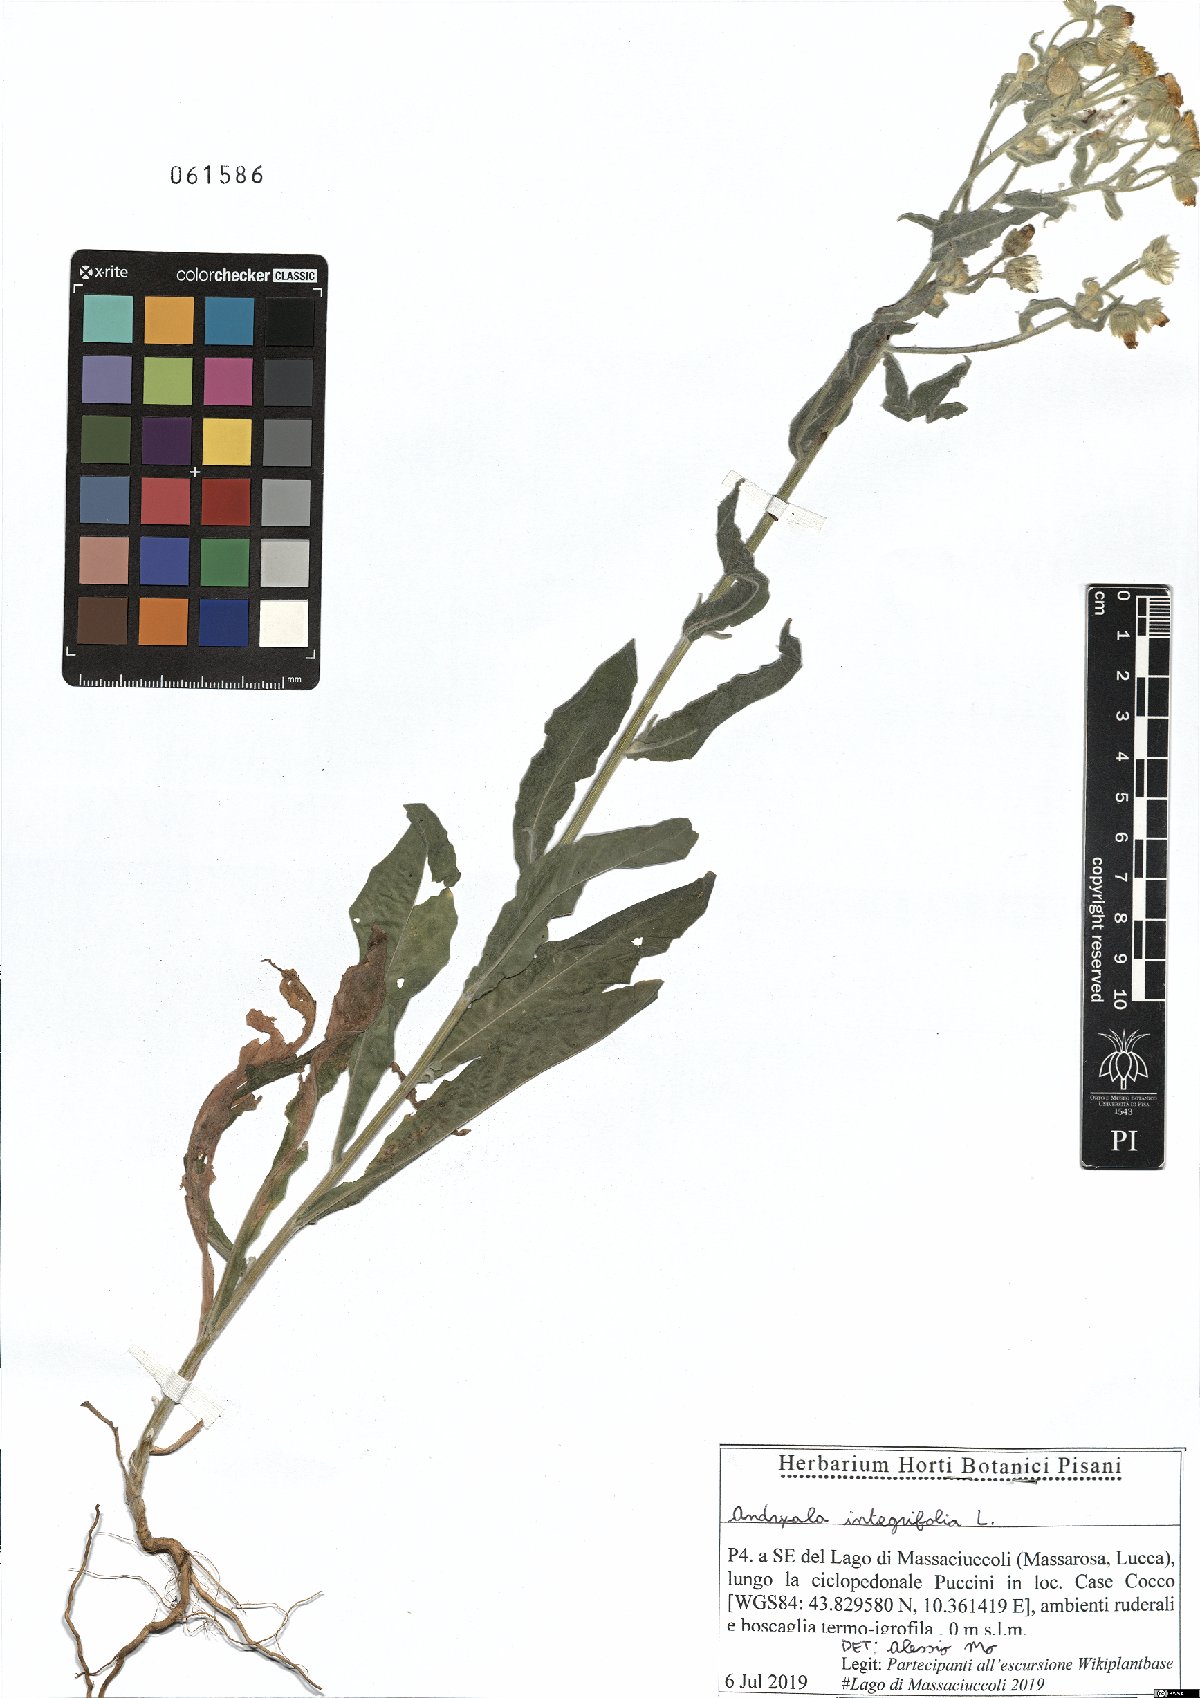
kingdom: Plantae
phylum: Tracheophyta
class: Magnoliopsida
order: Asterales
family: Asteraceae
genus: Andryala
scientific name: Andryala integrifolia
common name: Common andryala
